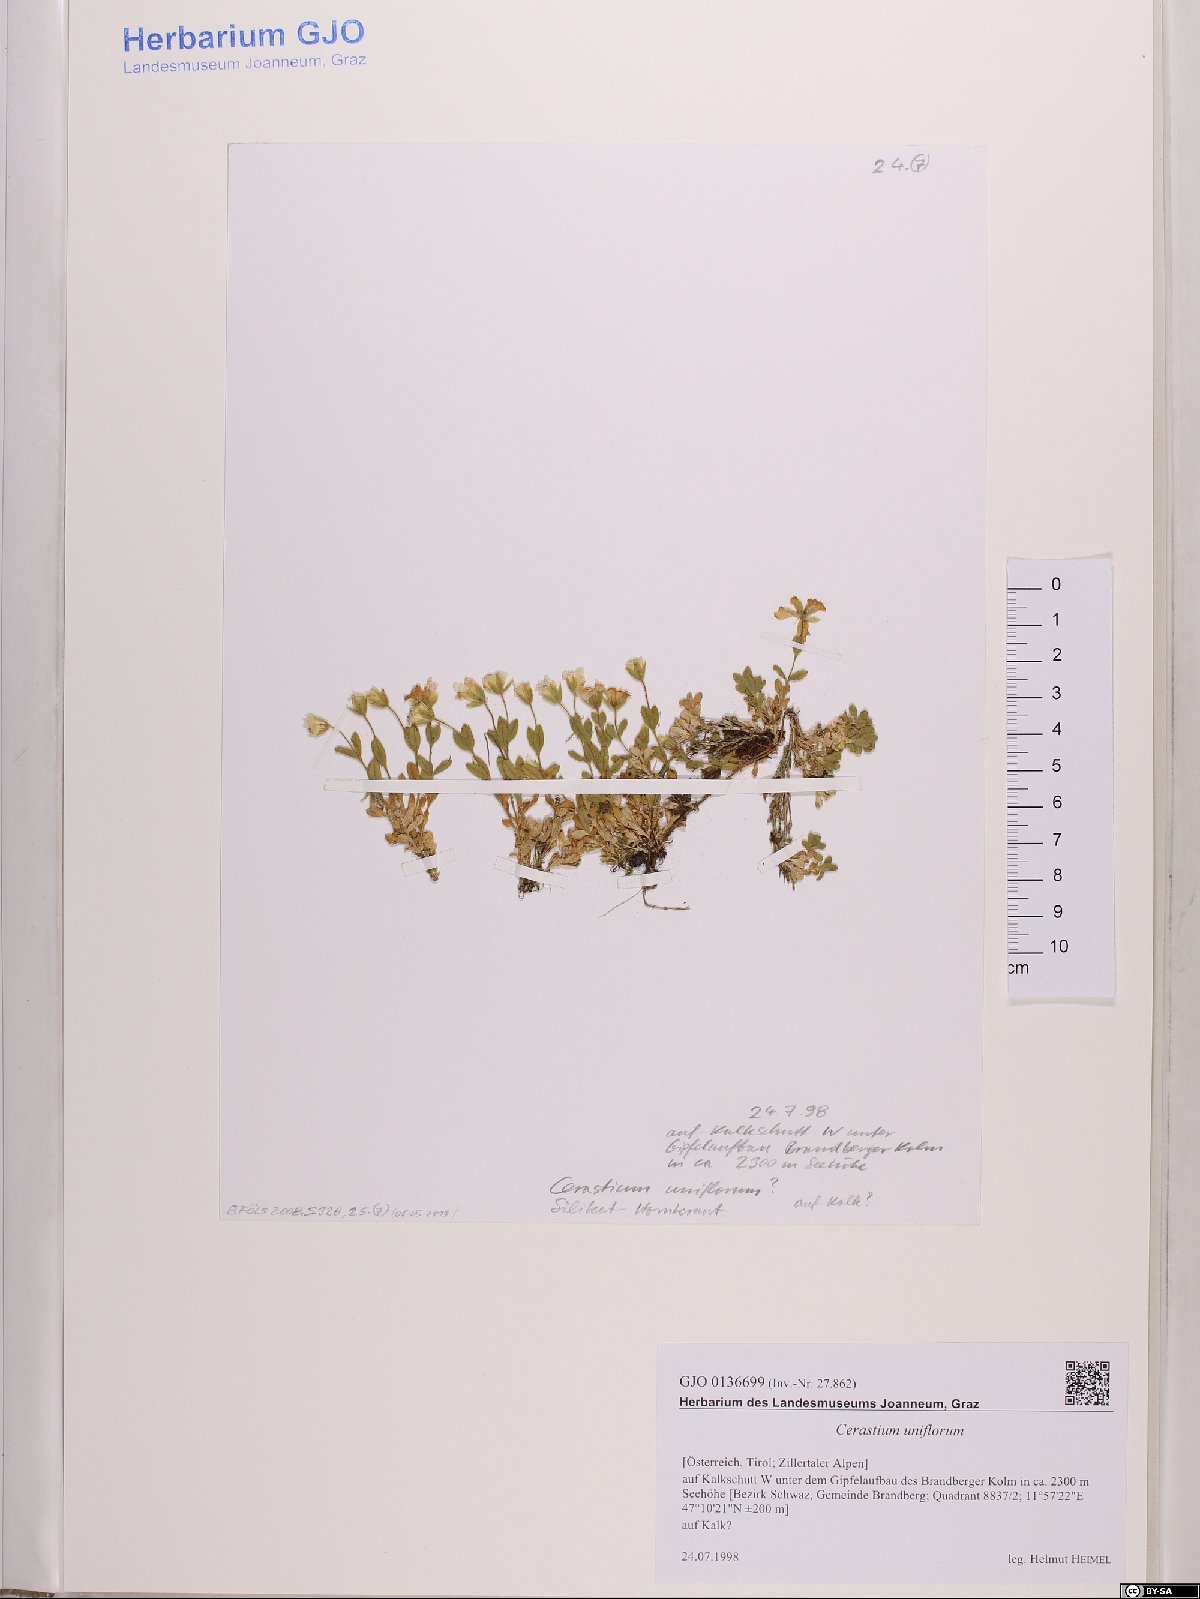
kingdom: Plantae
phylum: Tracheophyta
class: Magnoliopsida
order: Caryophyllales
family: Caryophyllaceae
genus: Cerastium
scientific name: Cerastium uniflorum
